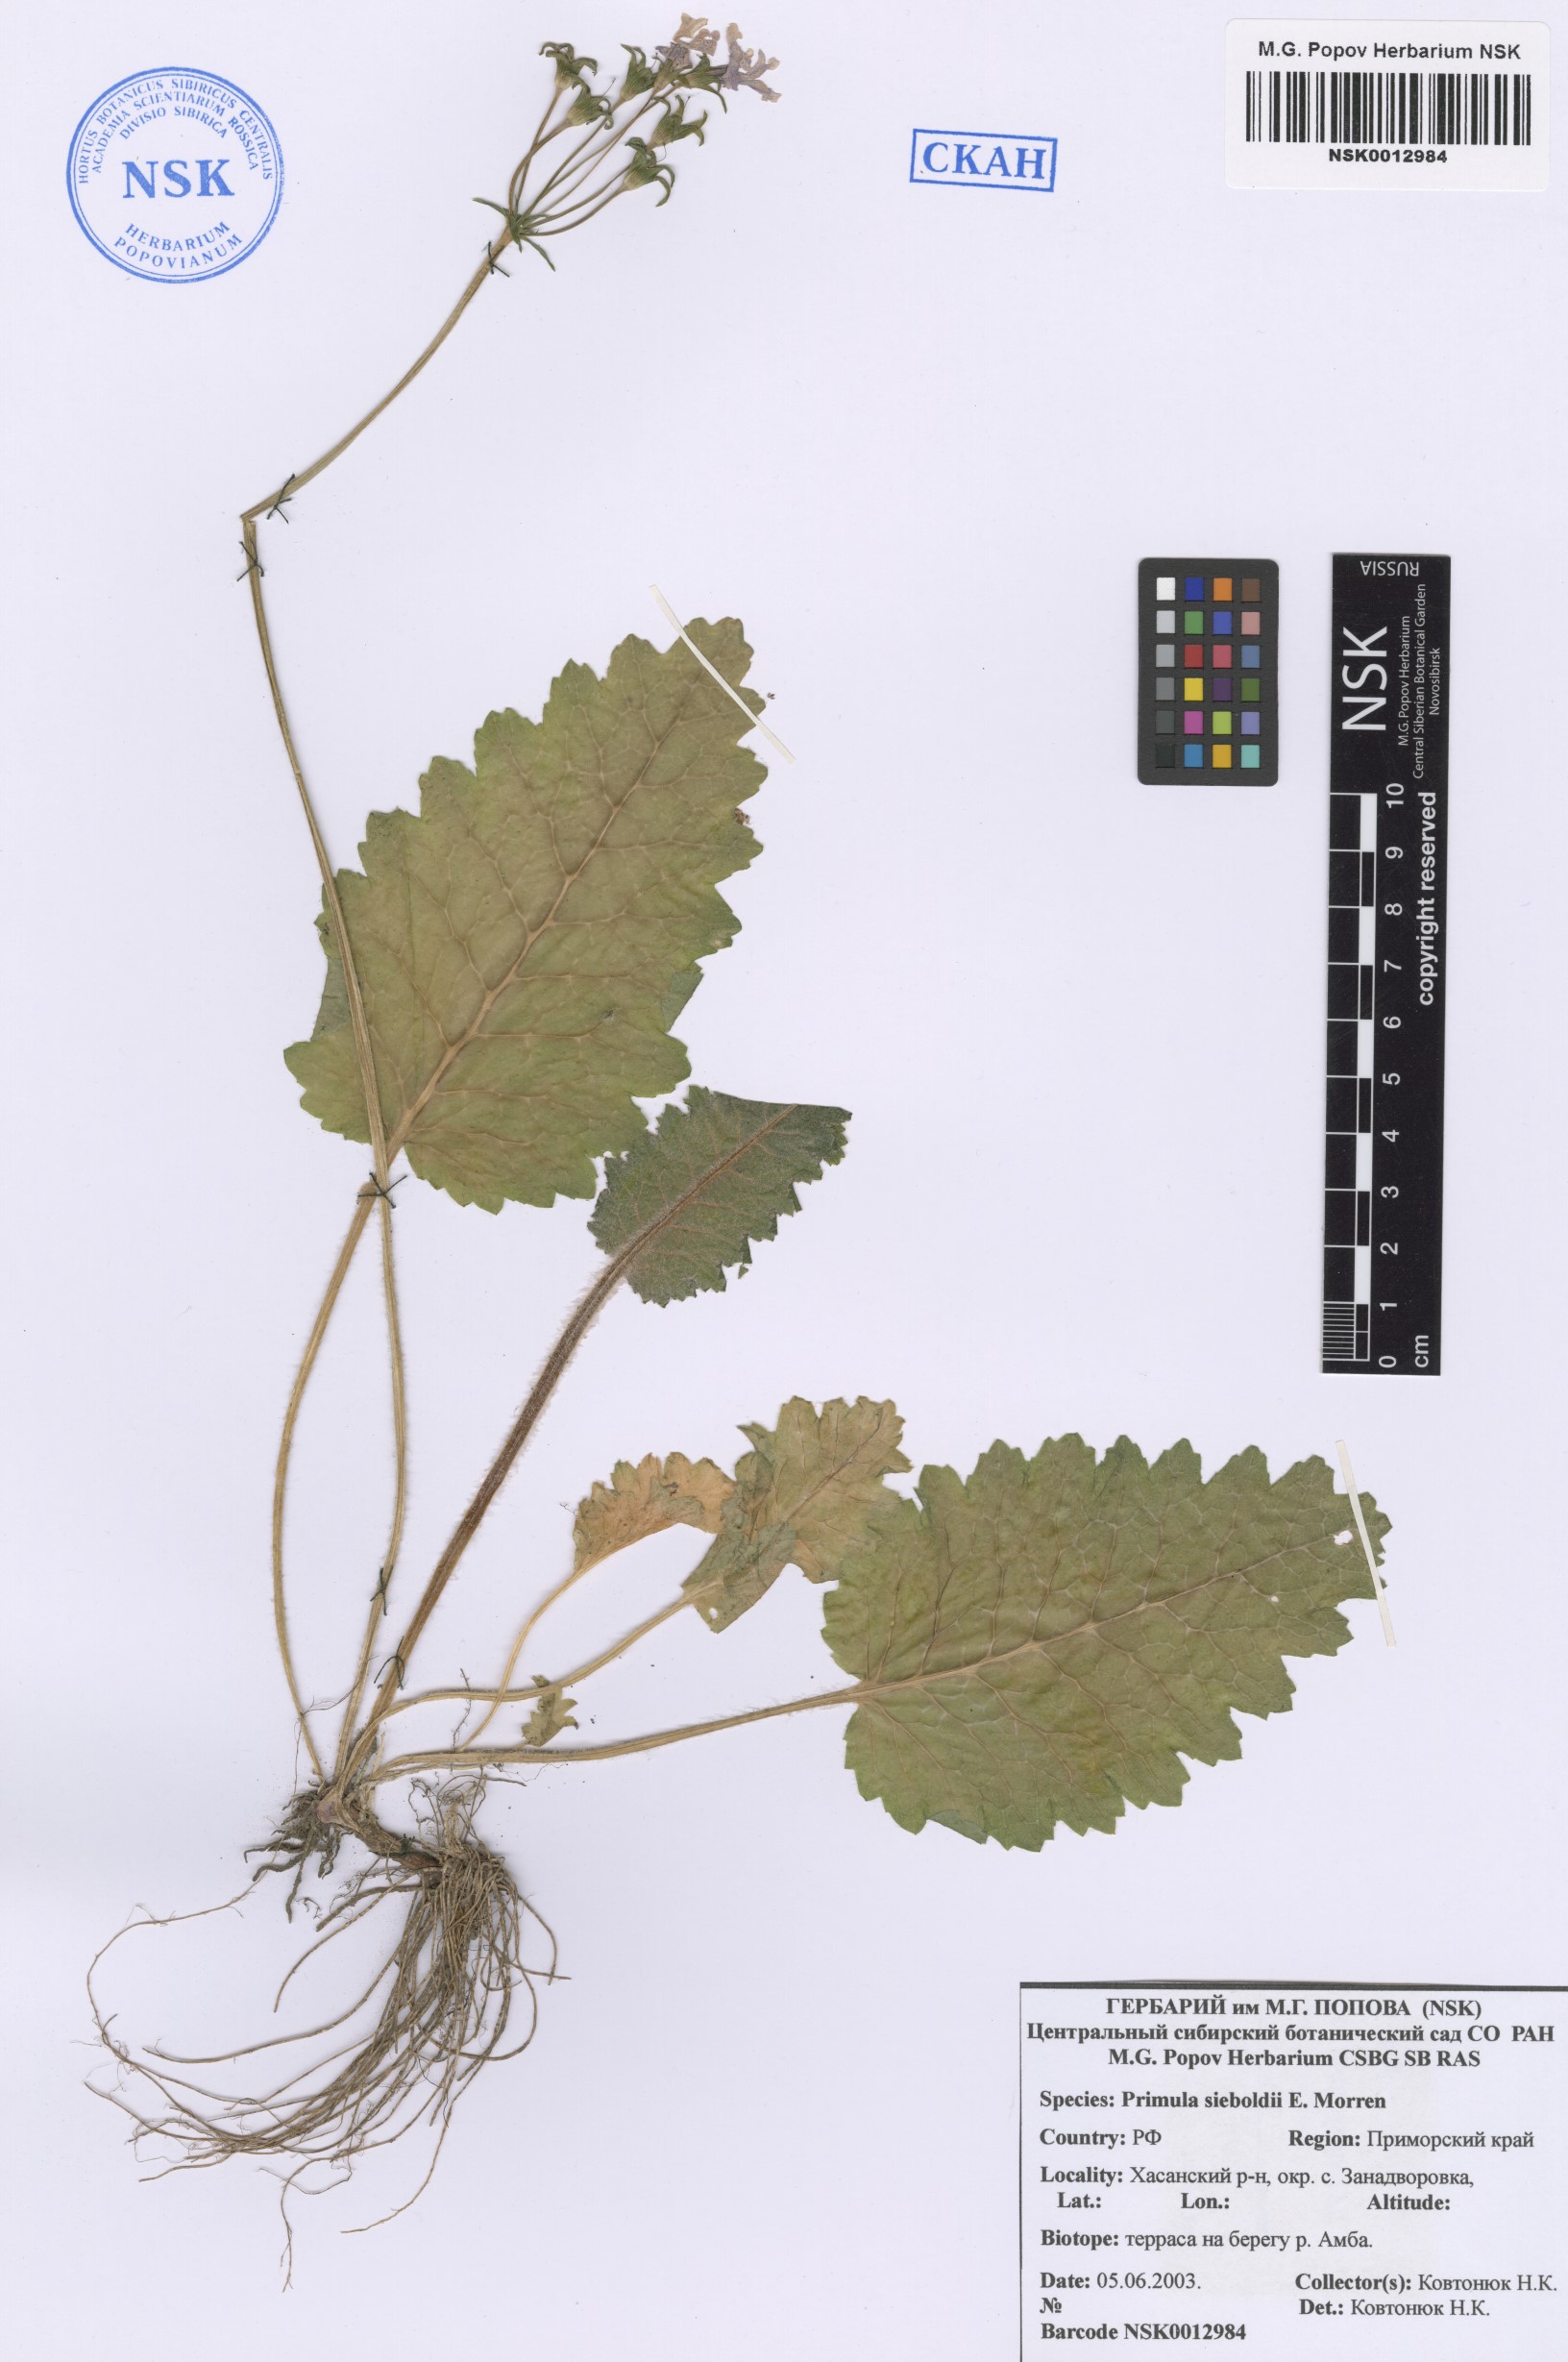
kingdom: Plantae
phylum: Tracheophyta
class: Magnoliopsida
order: Ericales
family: Primulaceae
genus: Primula
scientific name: Primula sieboldii
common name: Japanese primrose
